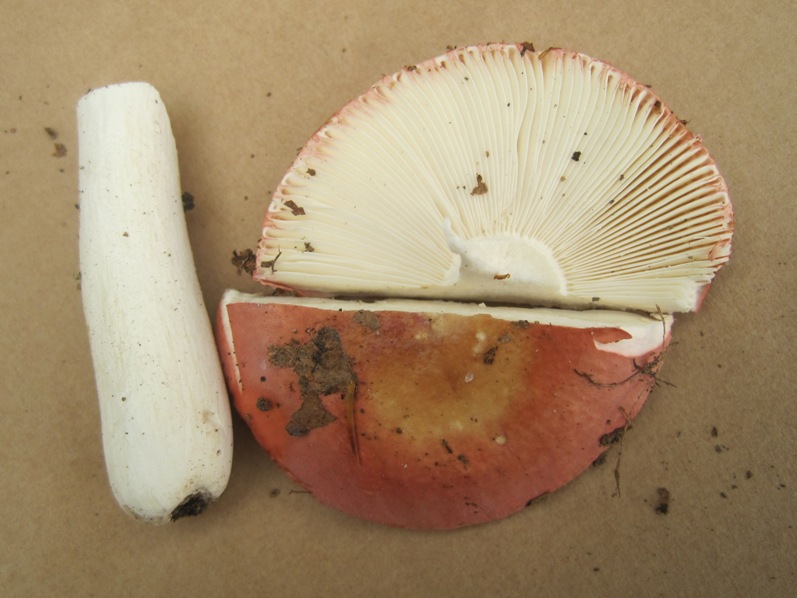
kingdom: Fungi
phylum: Basidiomycota
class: Agaricomycetes
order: Russulales
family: Russulaceae
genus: Russula
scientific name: Russula velenovskyi
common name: orangerød skørhat
